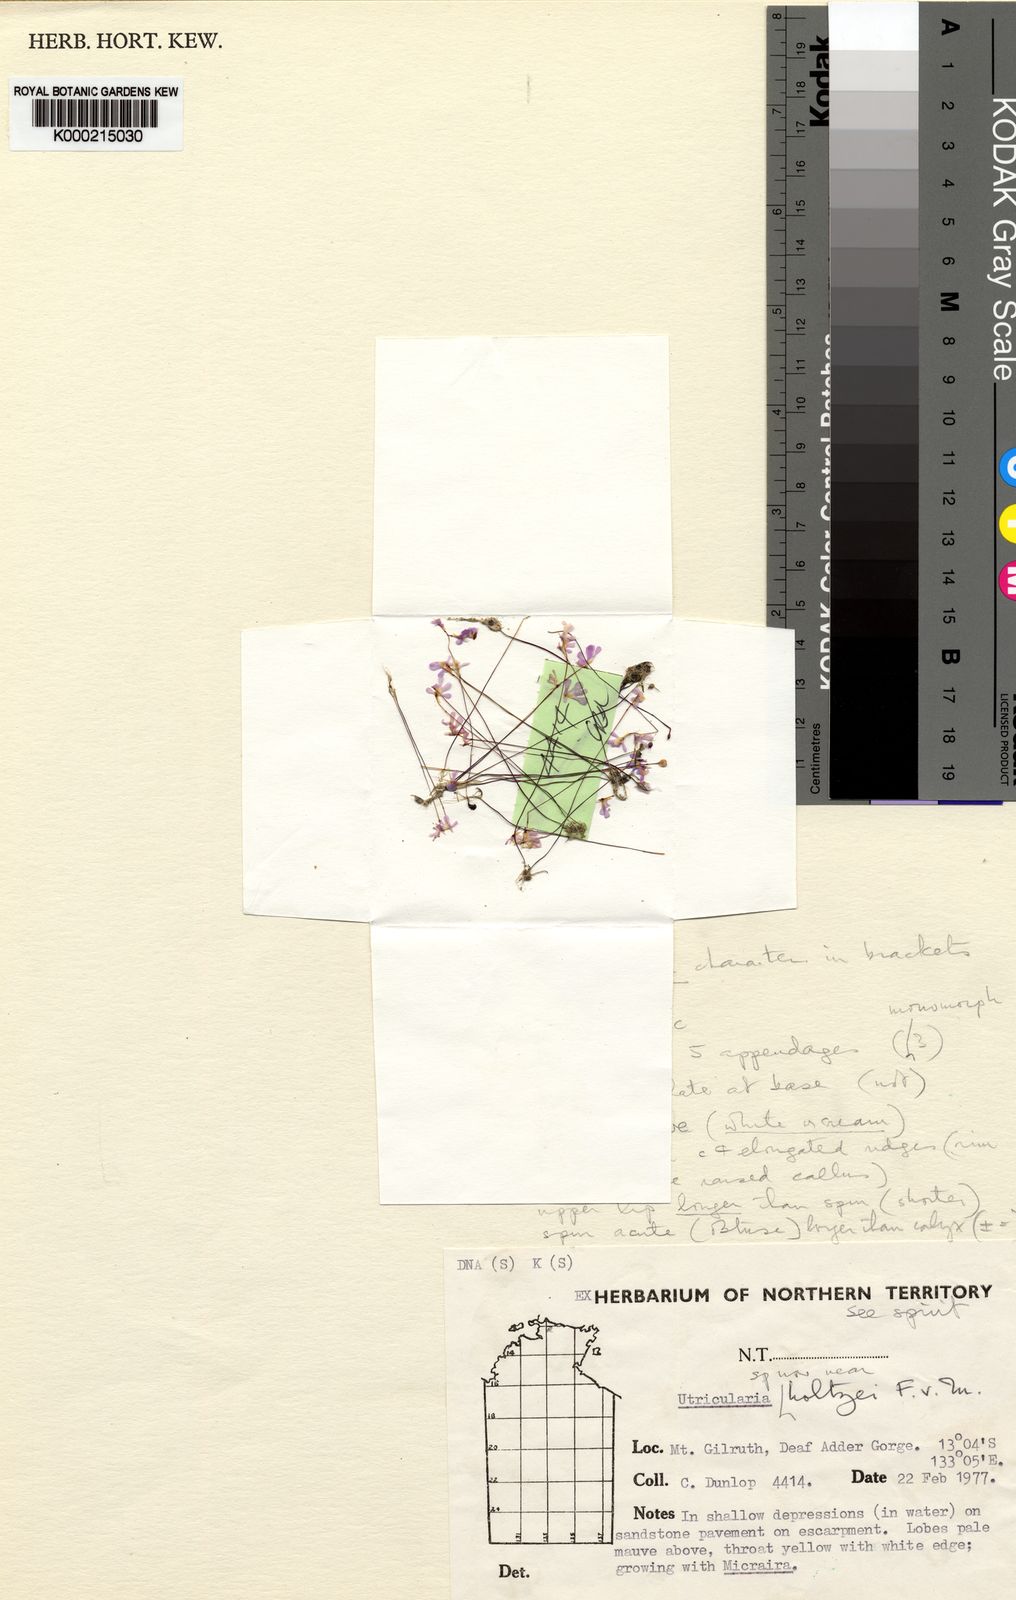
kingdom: Plantae
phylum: Tracheophyta
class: Magnoliopsida
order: Lamiales
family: Lentibulariaceae
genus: Utricularia
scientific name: Utricularia rhododactylos
